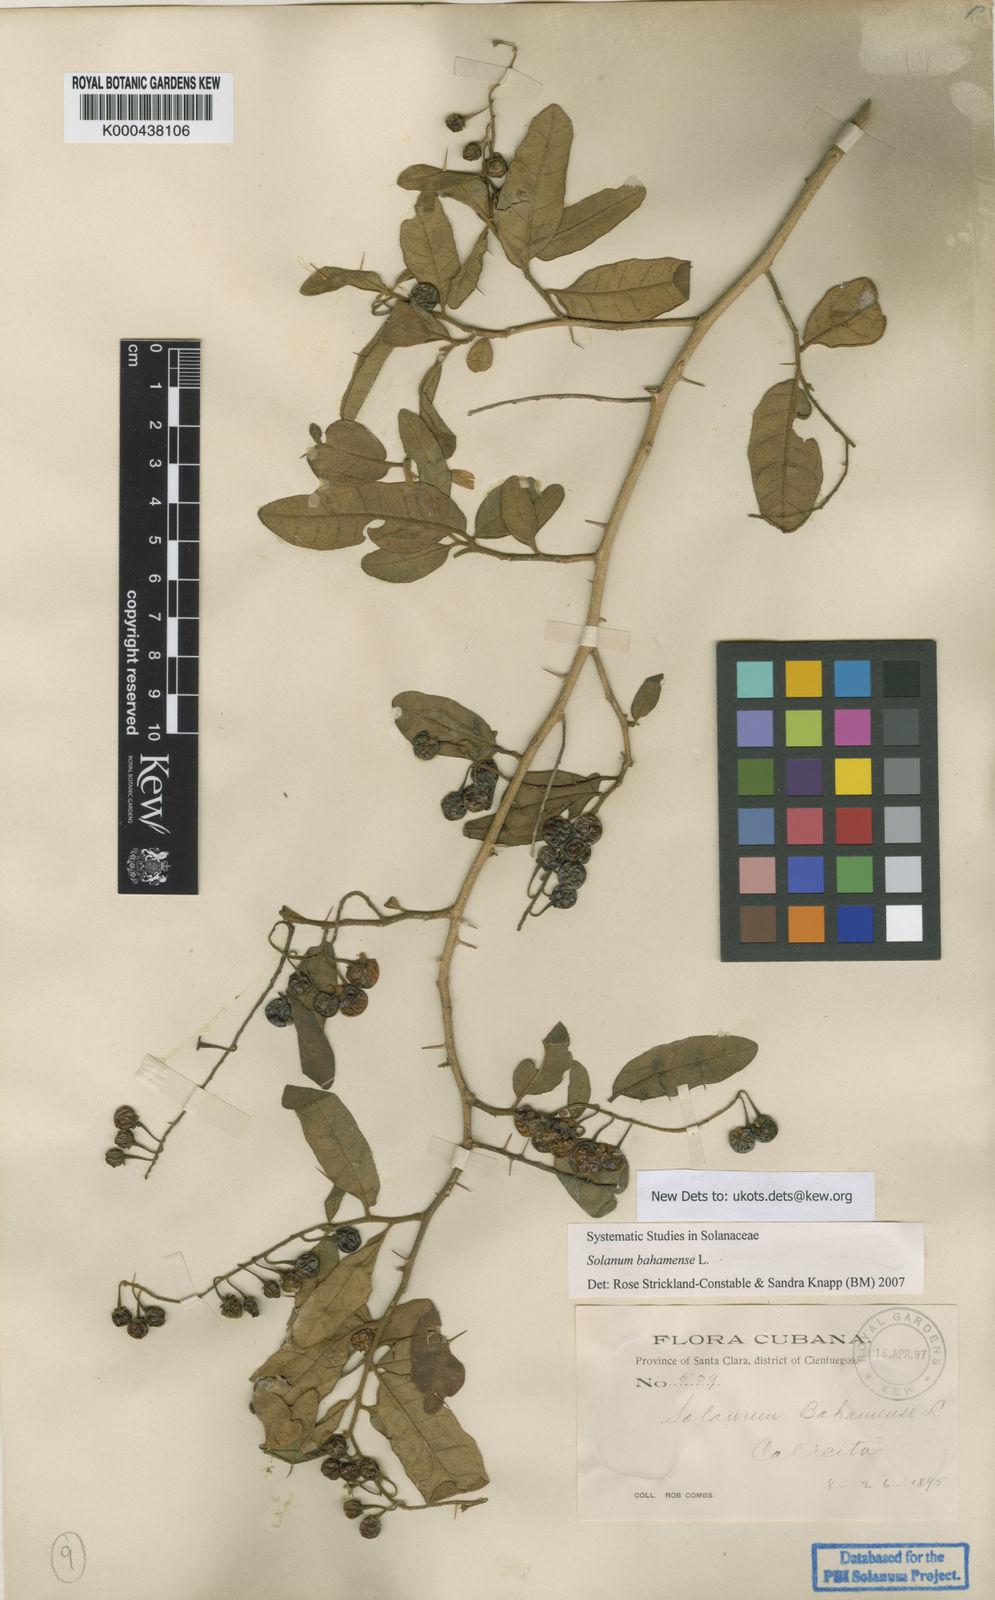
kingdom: Plantae
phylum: Tracheophyta
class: Magnoliopsida
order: Solanales
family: Solanaceae
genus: Solanum
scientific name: Solanum bahamense
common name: Canker-berry
